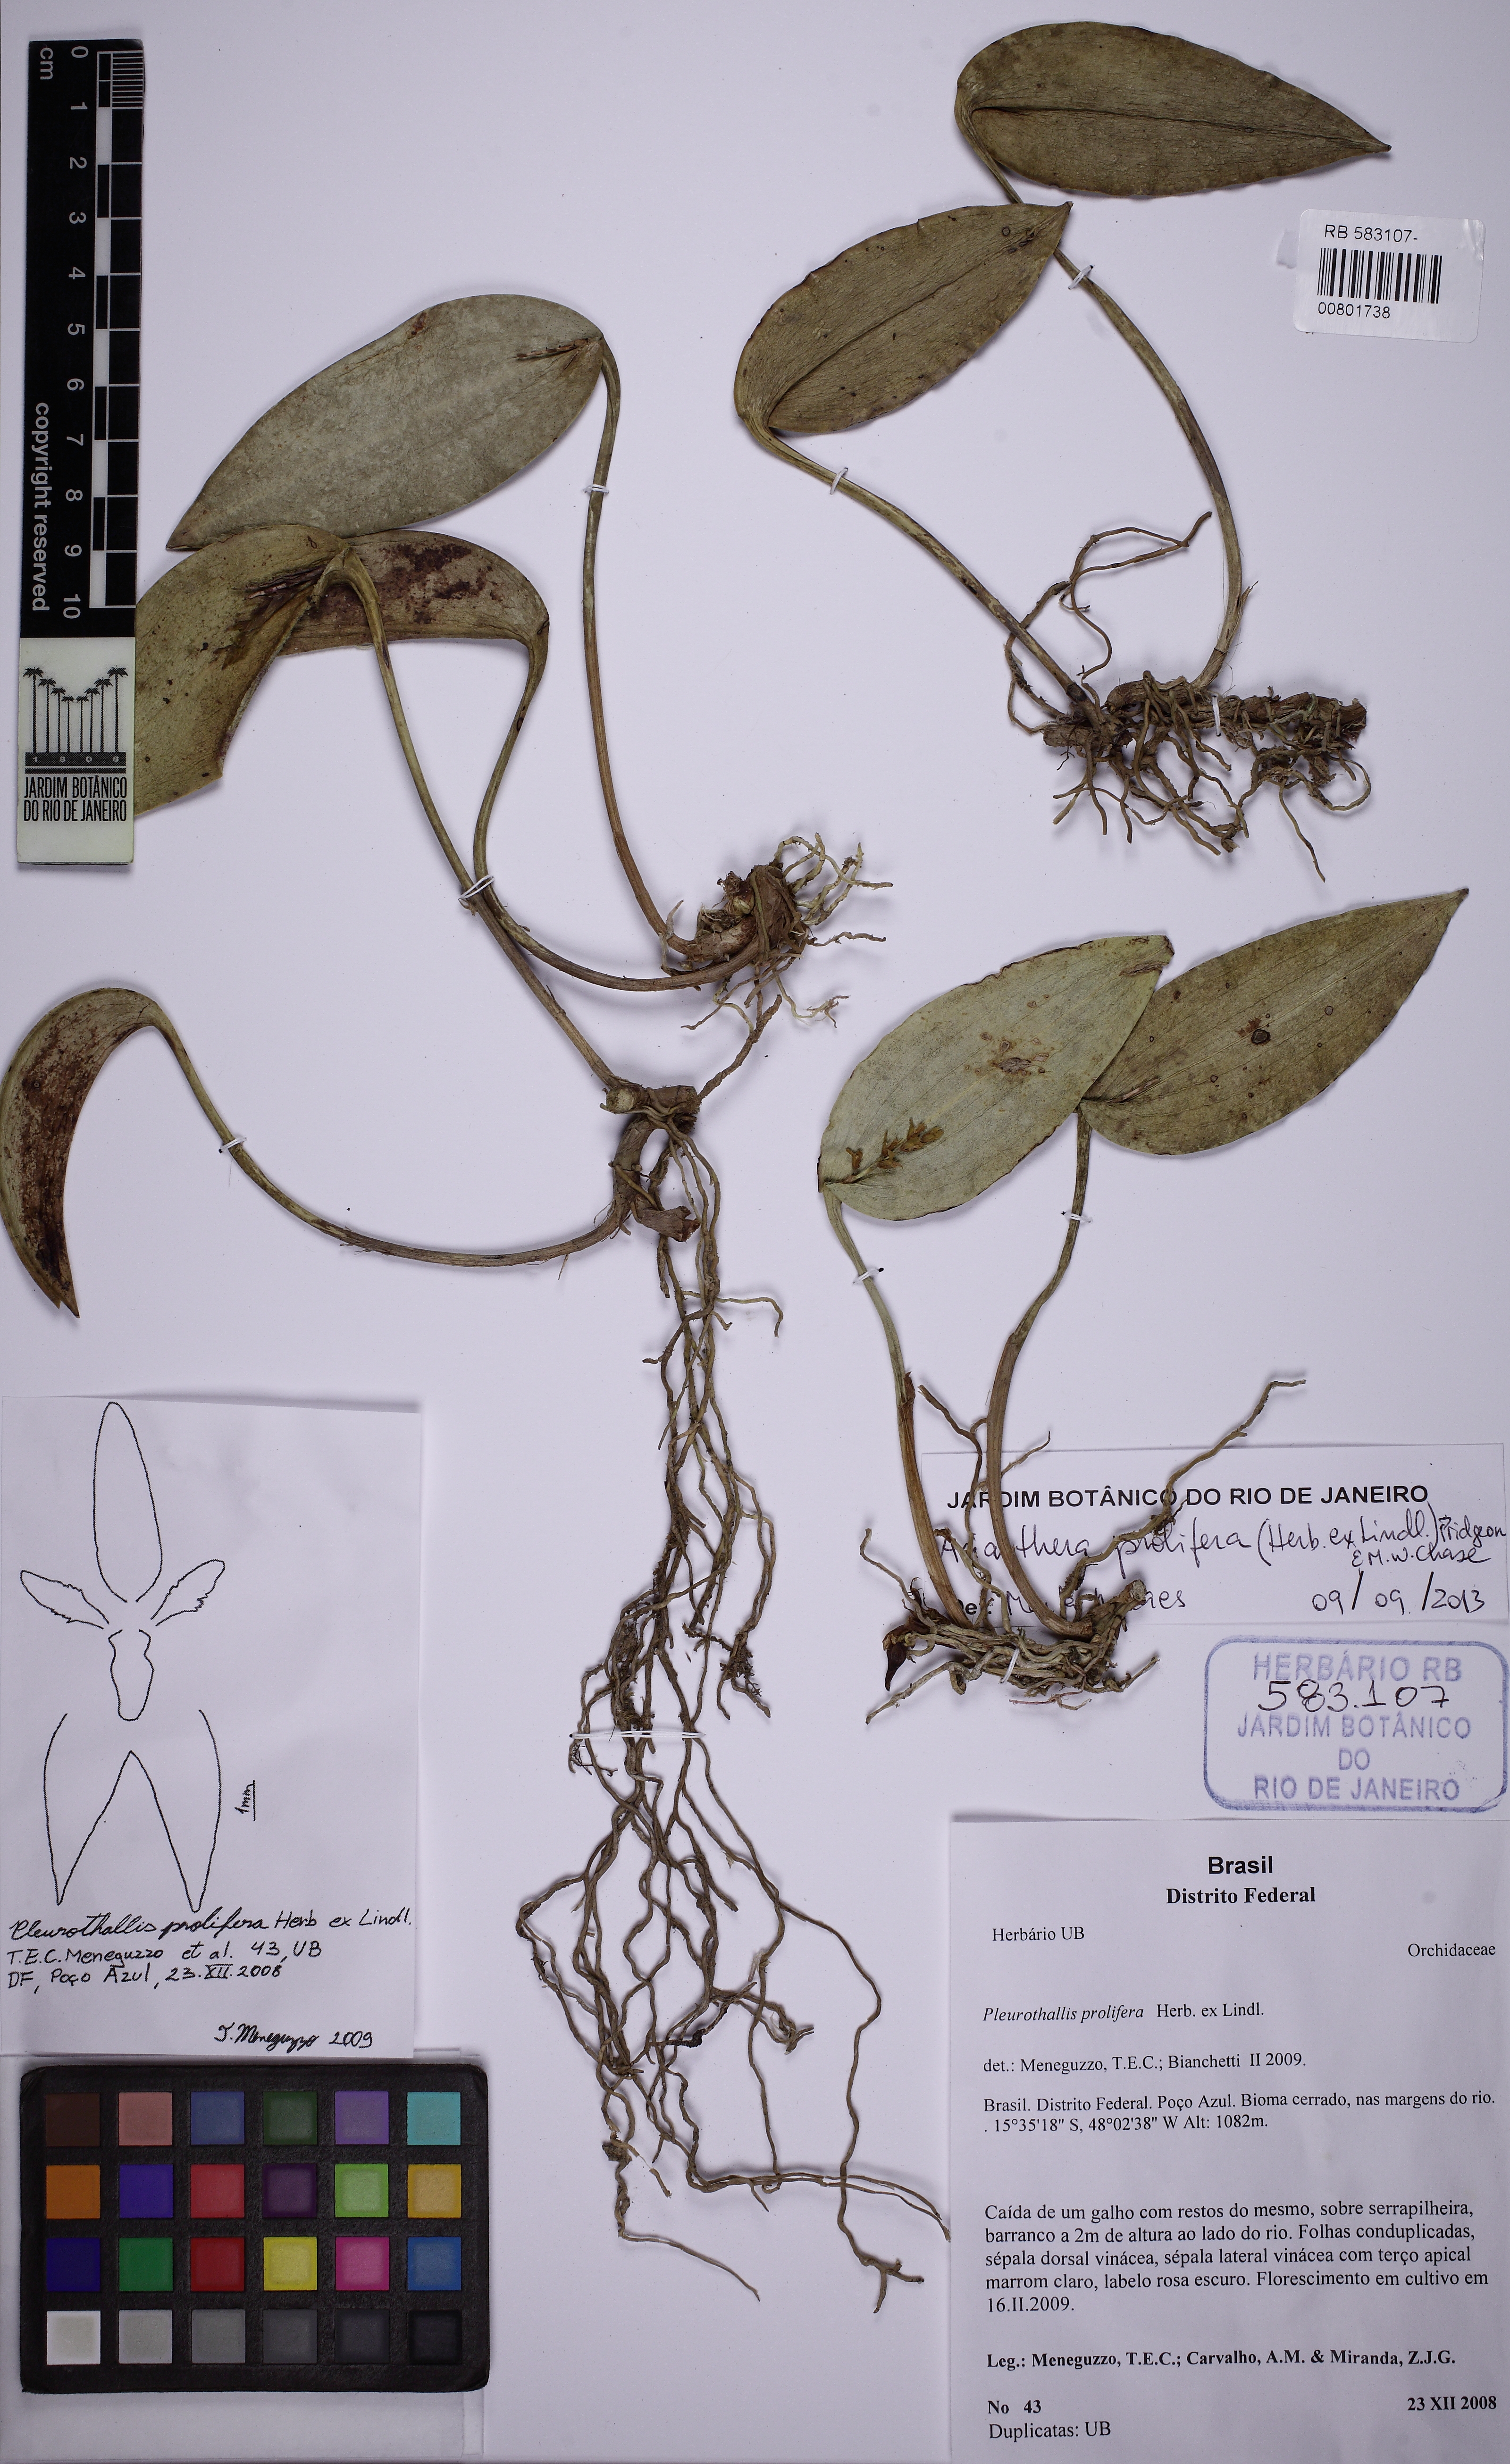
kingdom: Plantae
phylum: Tracheophyta
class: Liliopsida
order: Asparagales
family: Orchidaceae
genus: Acianthera
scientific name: Acianthera prolifera
